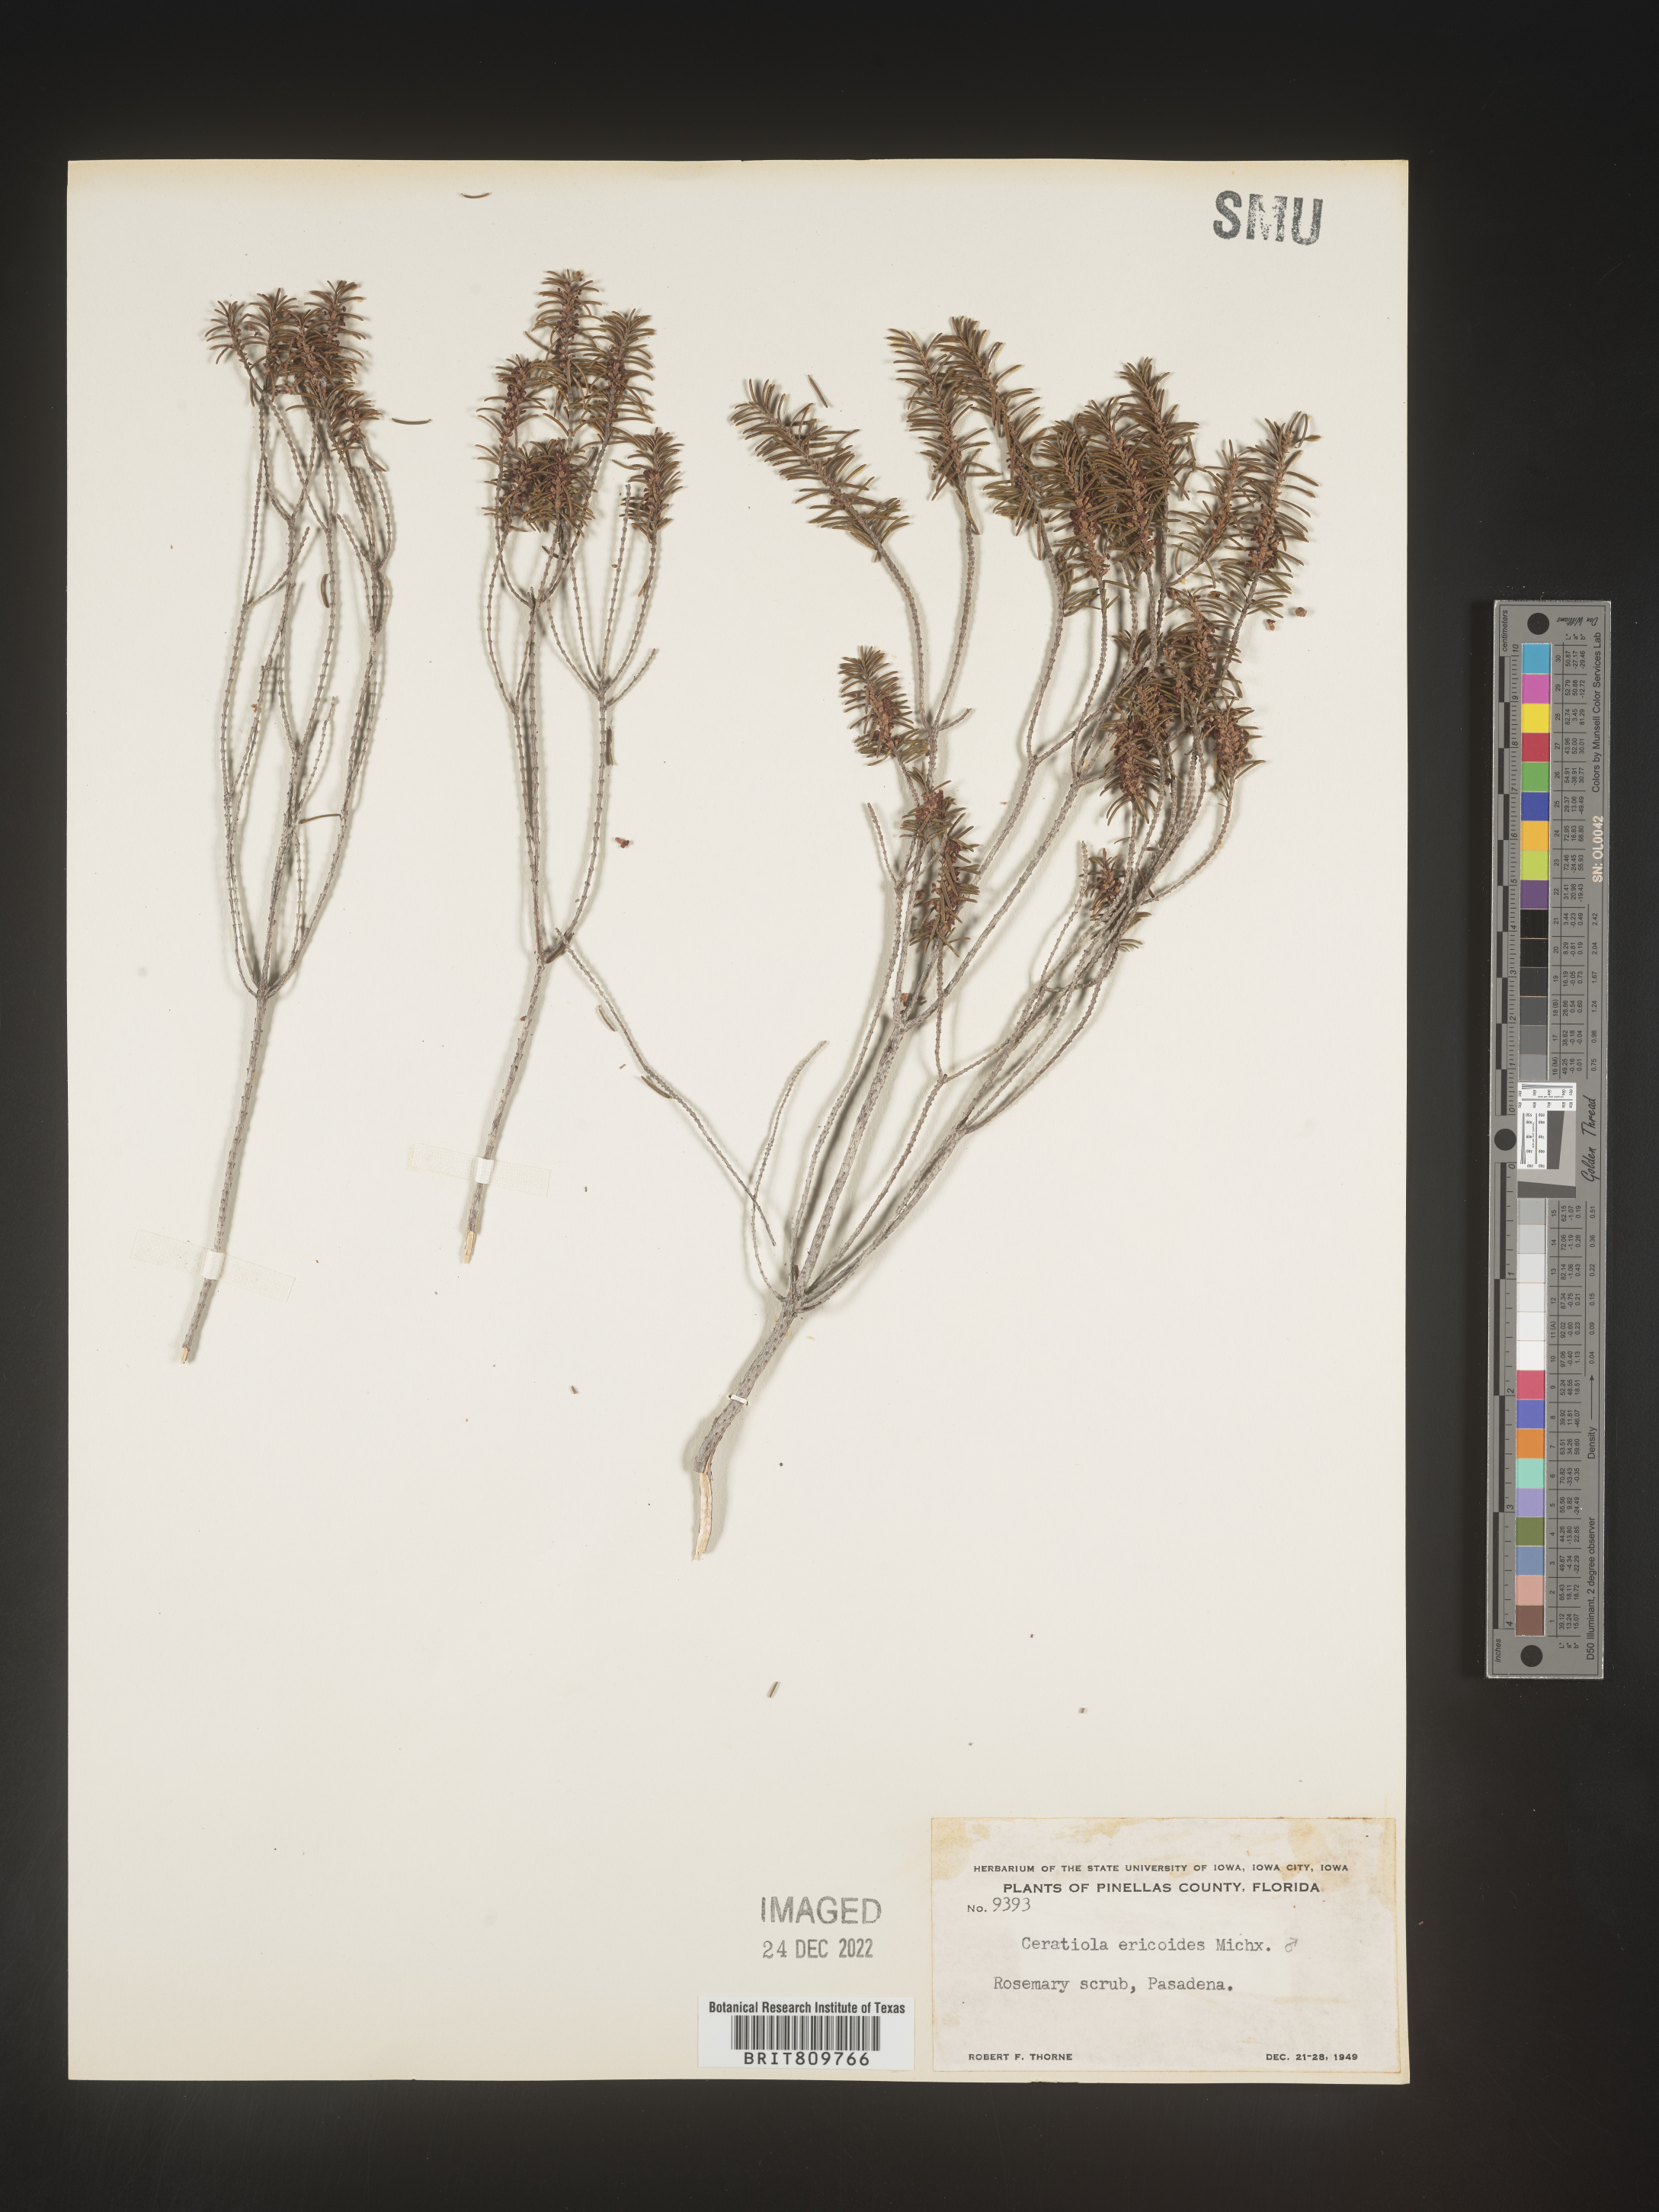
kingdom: Plantae
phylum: Tracheophyta
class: Magnoliopsida
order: Ericales
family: Ericaceae
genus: Ceratiola
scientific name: Ceratiola ericoides
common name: Sandhill-rosemary
